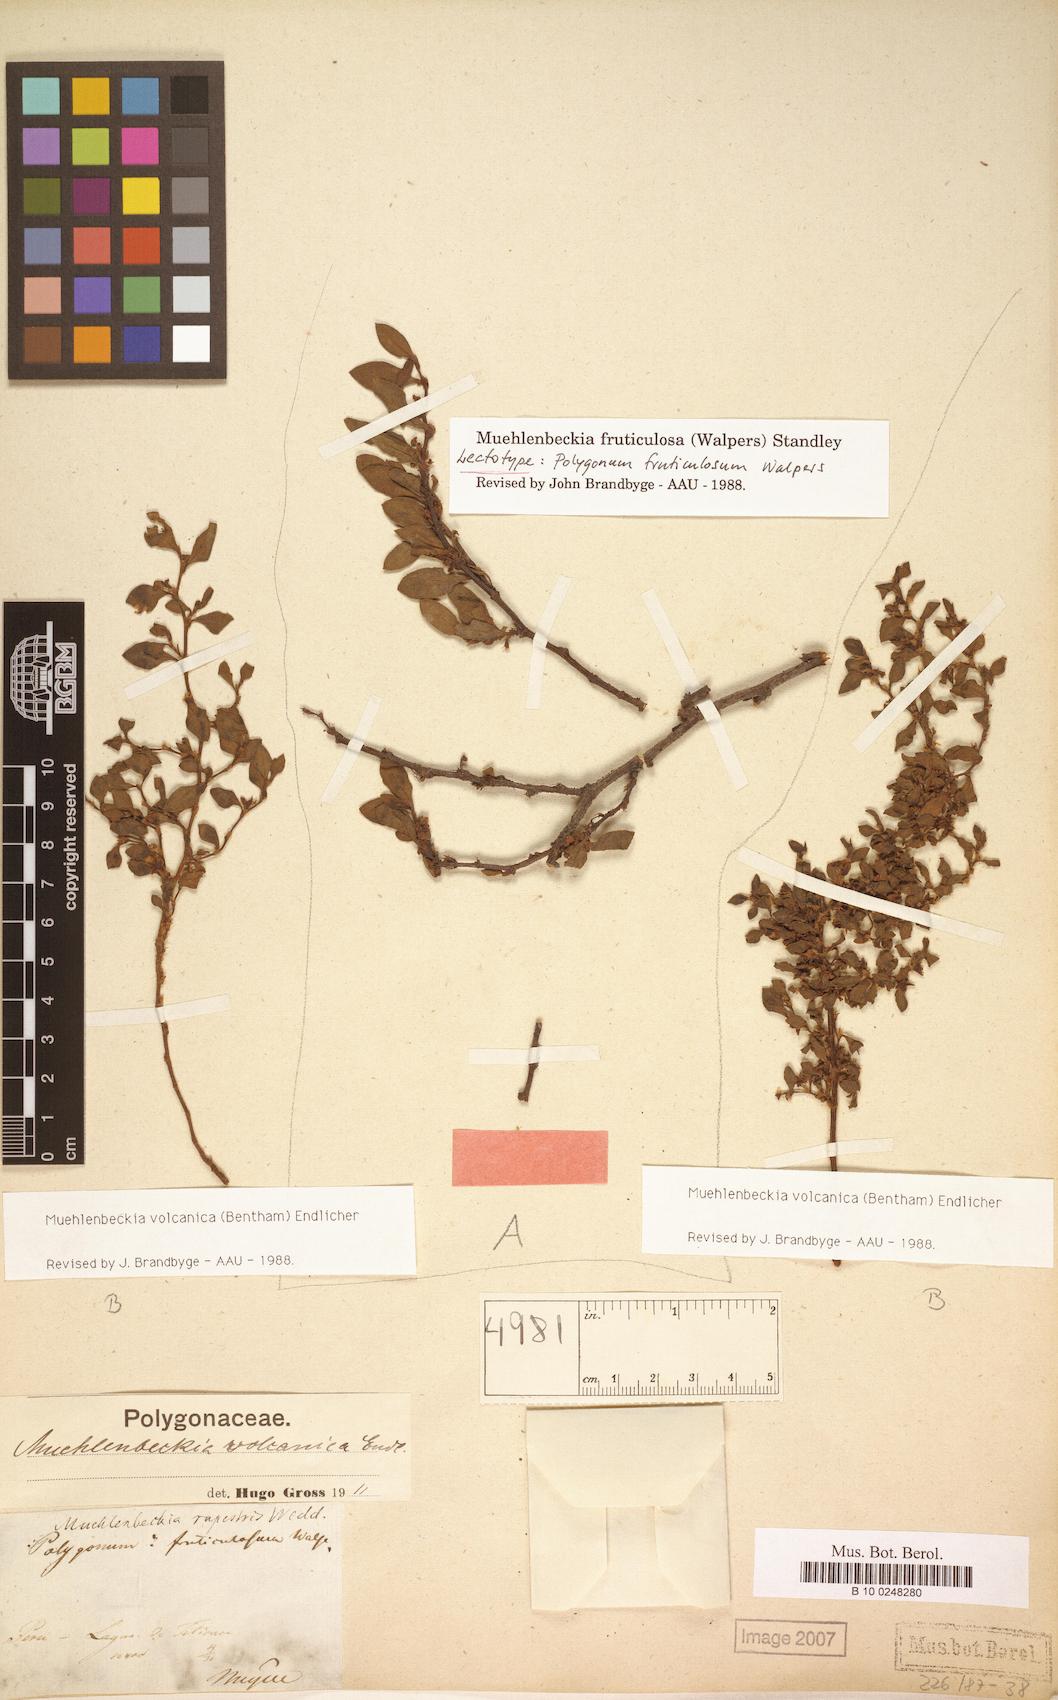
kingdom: Plantae
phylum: Tracheophyta
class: Magnoliopsida
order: Caryophyllales
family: Polygonaceae
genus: Muehlenbeckia
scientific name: Muehlenbeckia fruticulosa
